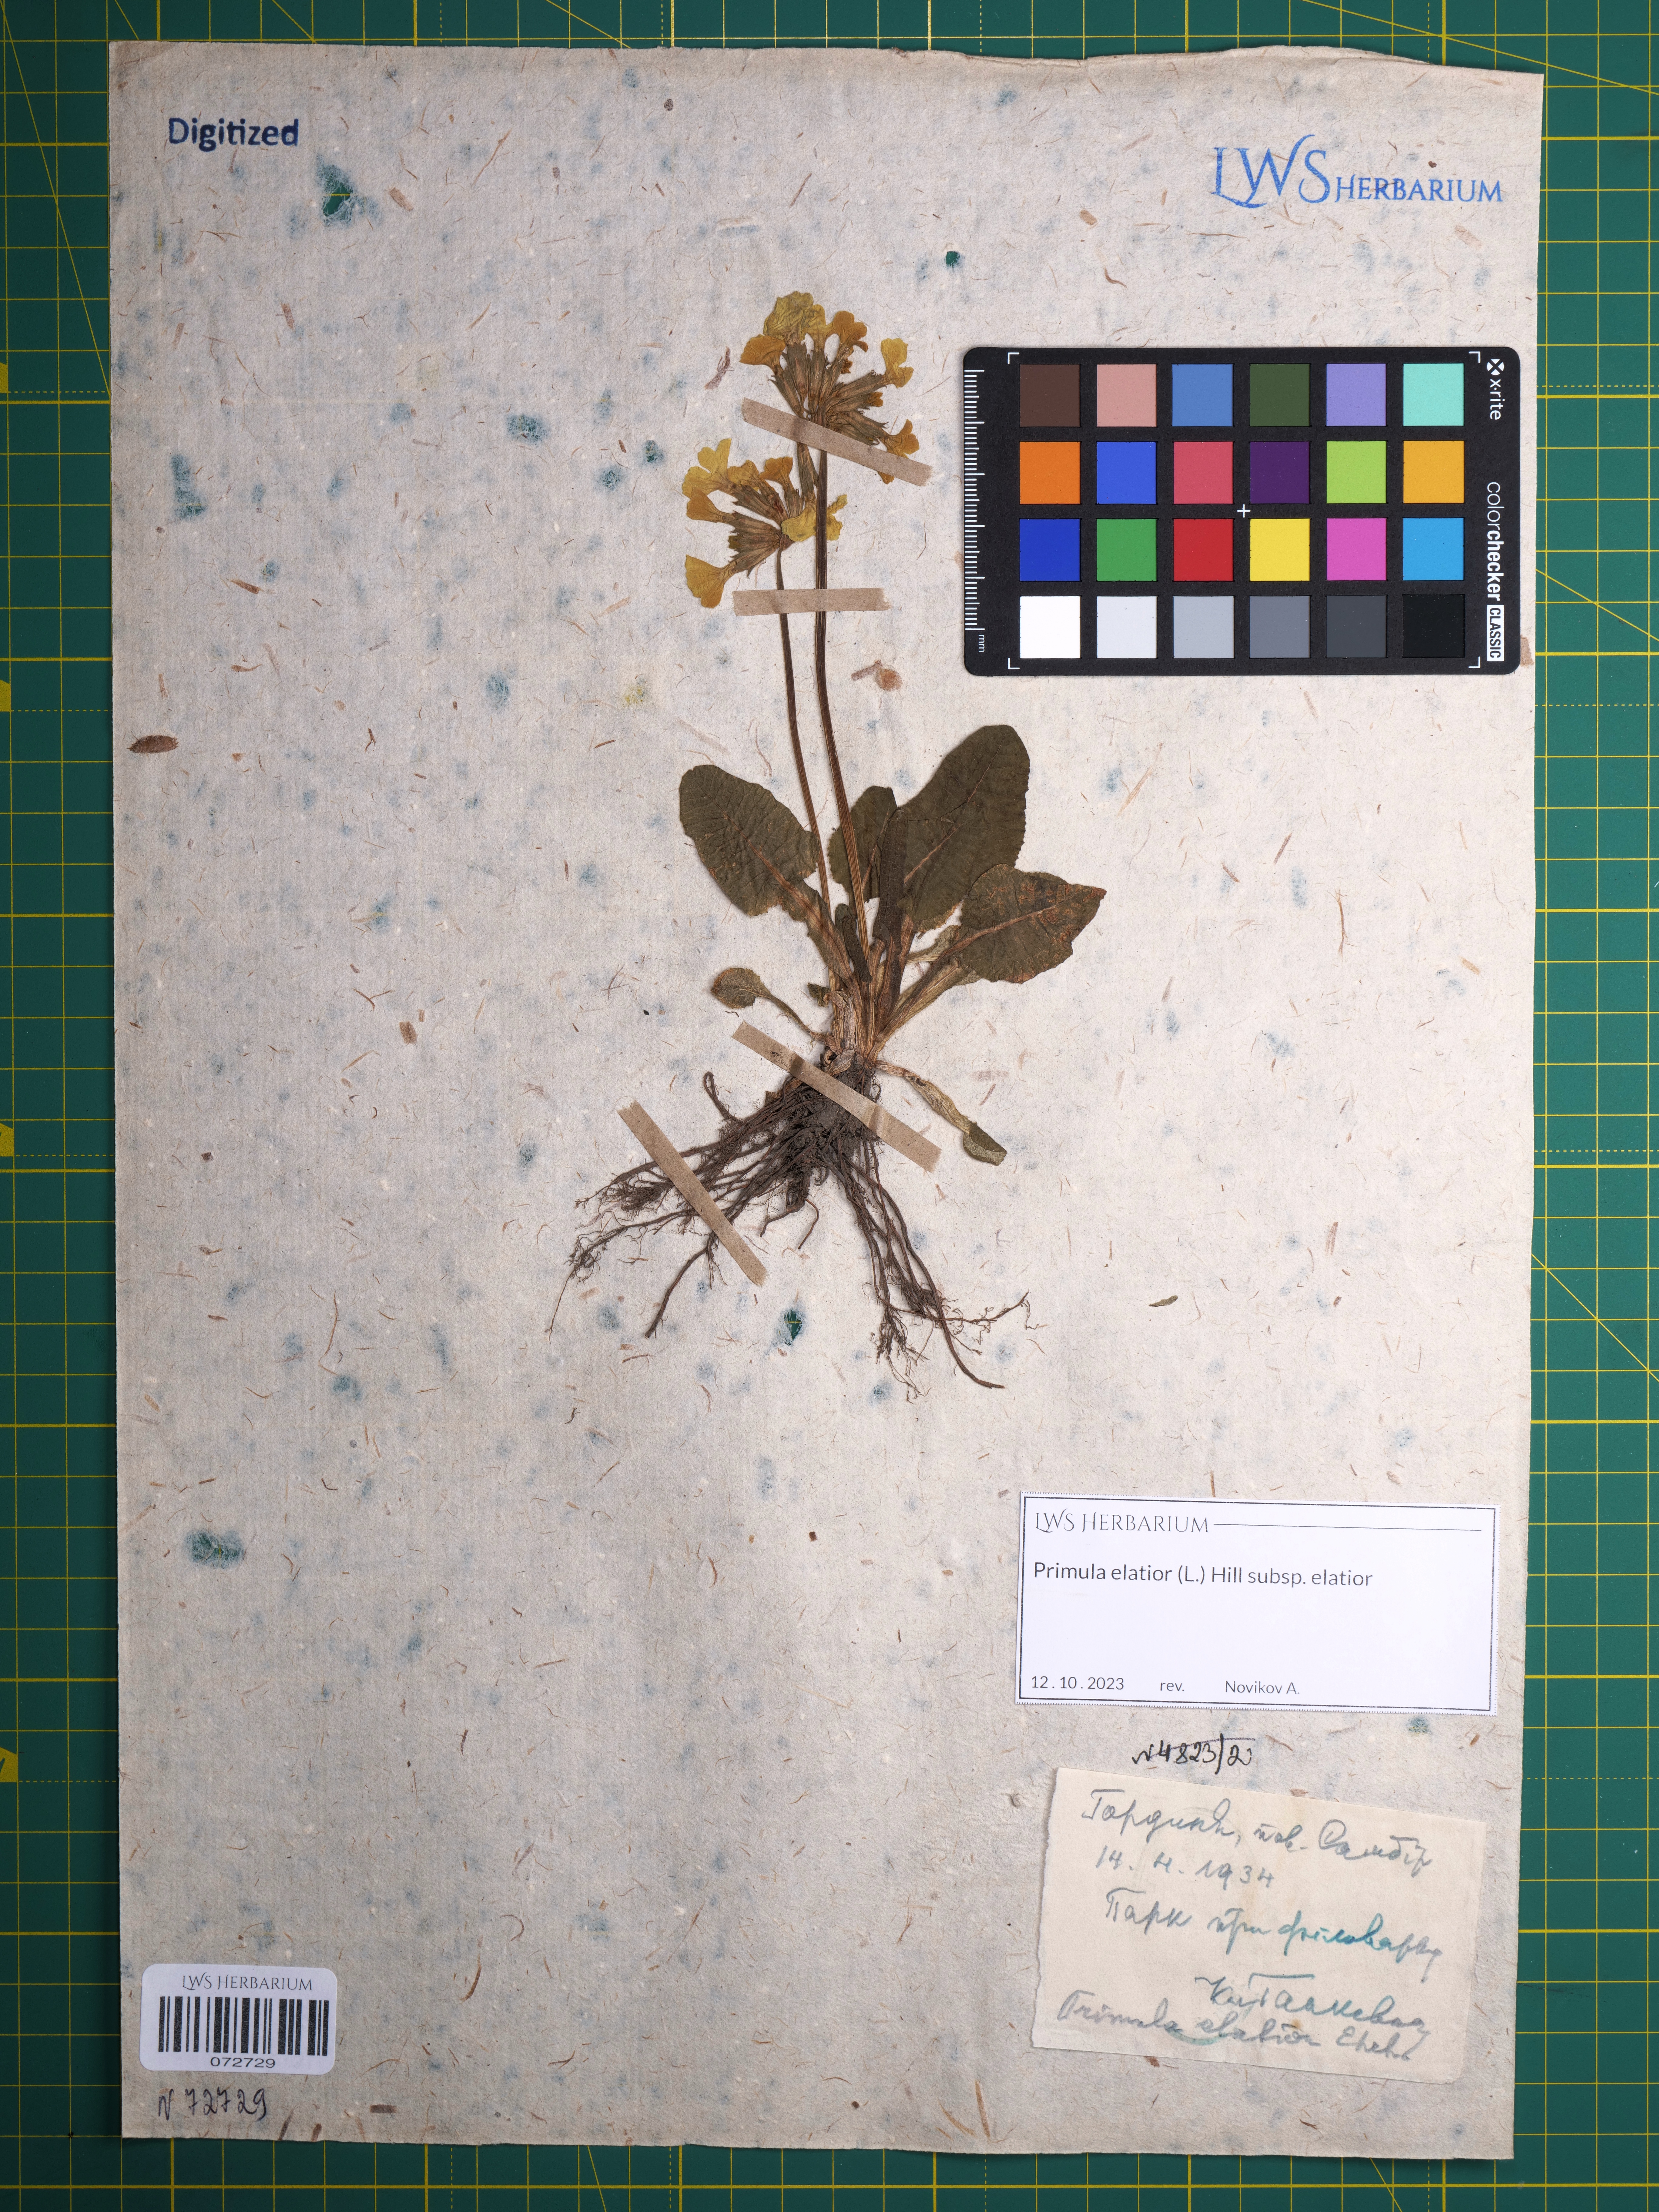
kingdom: Plantae
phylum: Tracheophyta
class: Magnoliopsida
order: Ericales
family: Primulaceae
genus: Primula
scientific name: Primula elatior
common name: Oxlip
